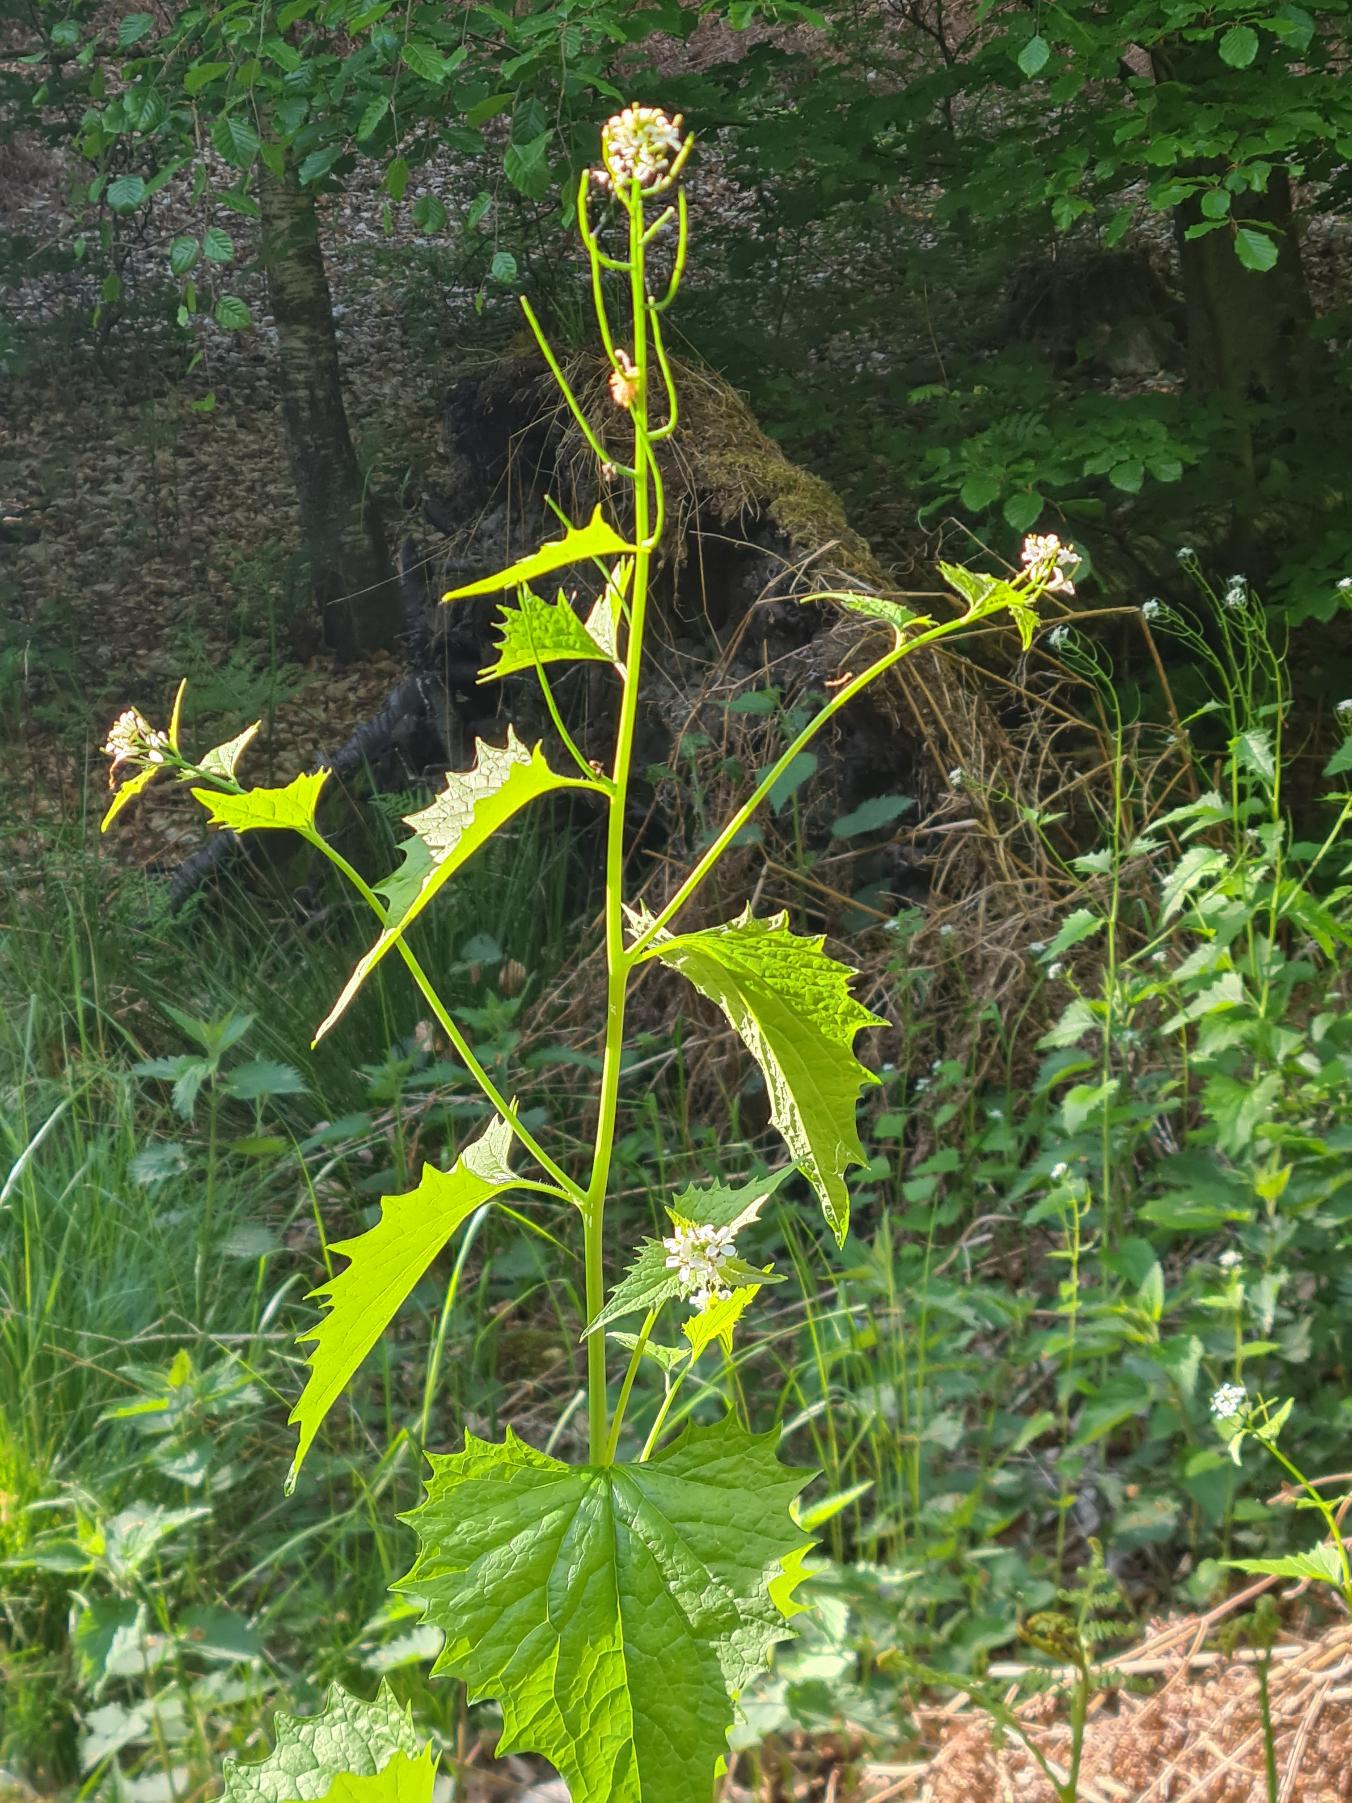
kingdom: Plantae
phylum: Tracheophyta
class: Magnoliopsida
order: Brassicales
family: Brassicaceae
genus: Alliaria
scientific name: Alliaria petiolata
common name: Løgkarse
